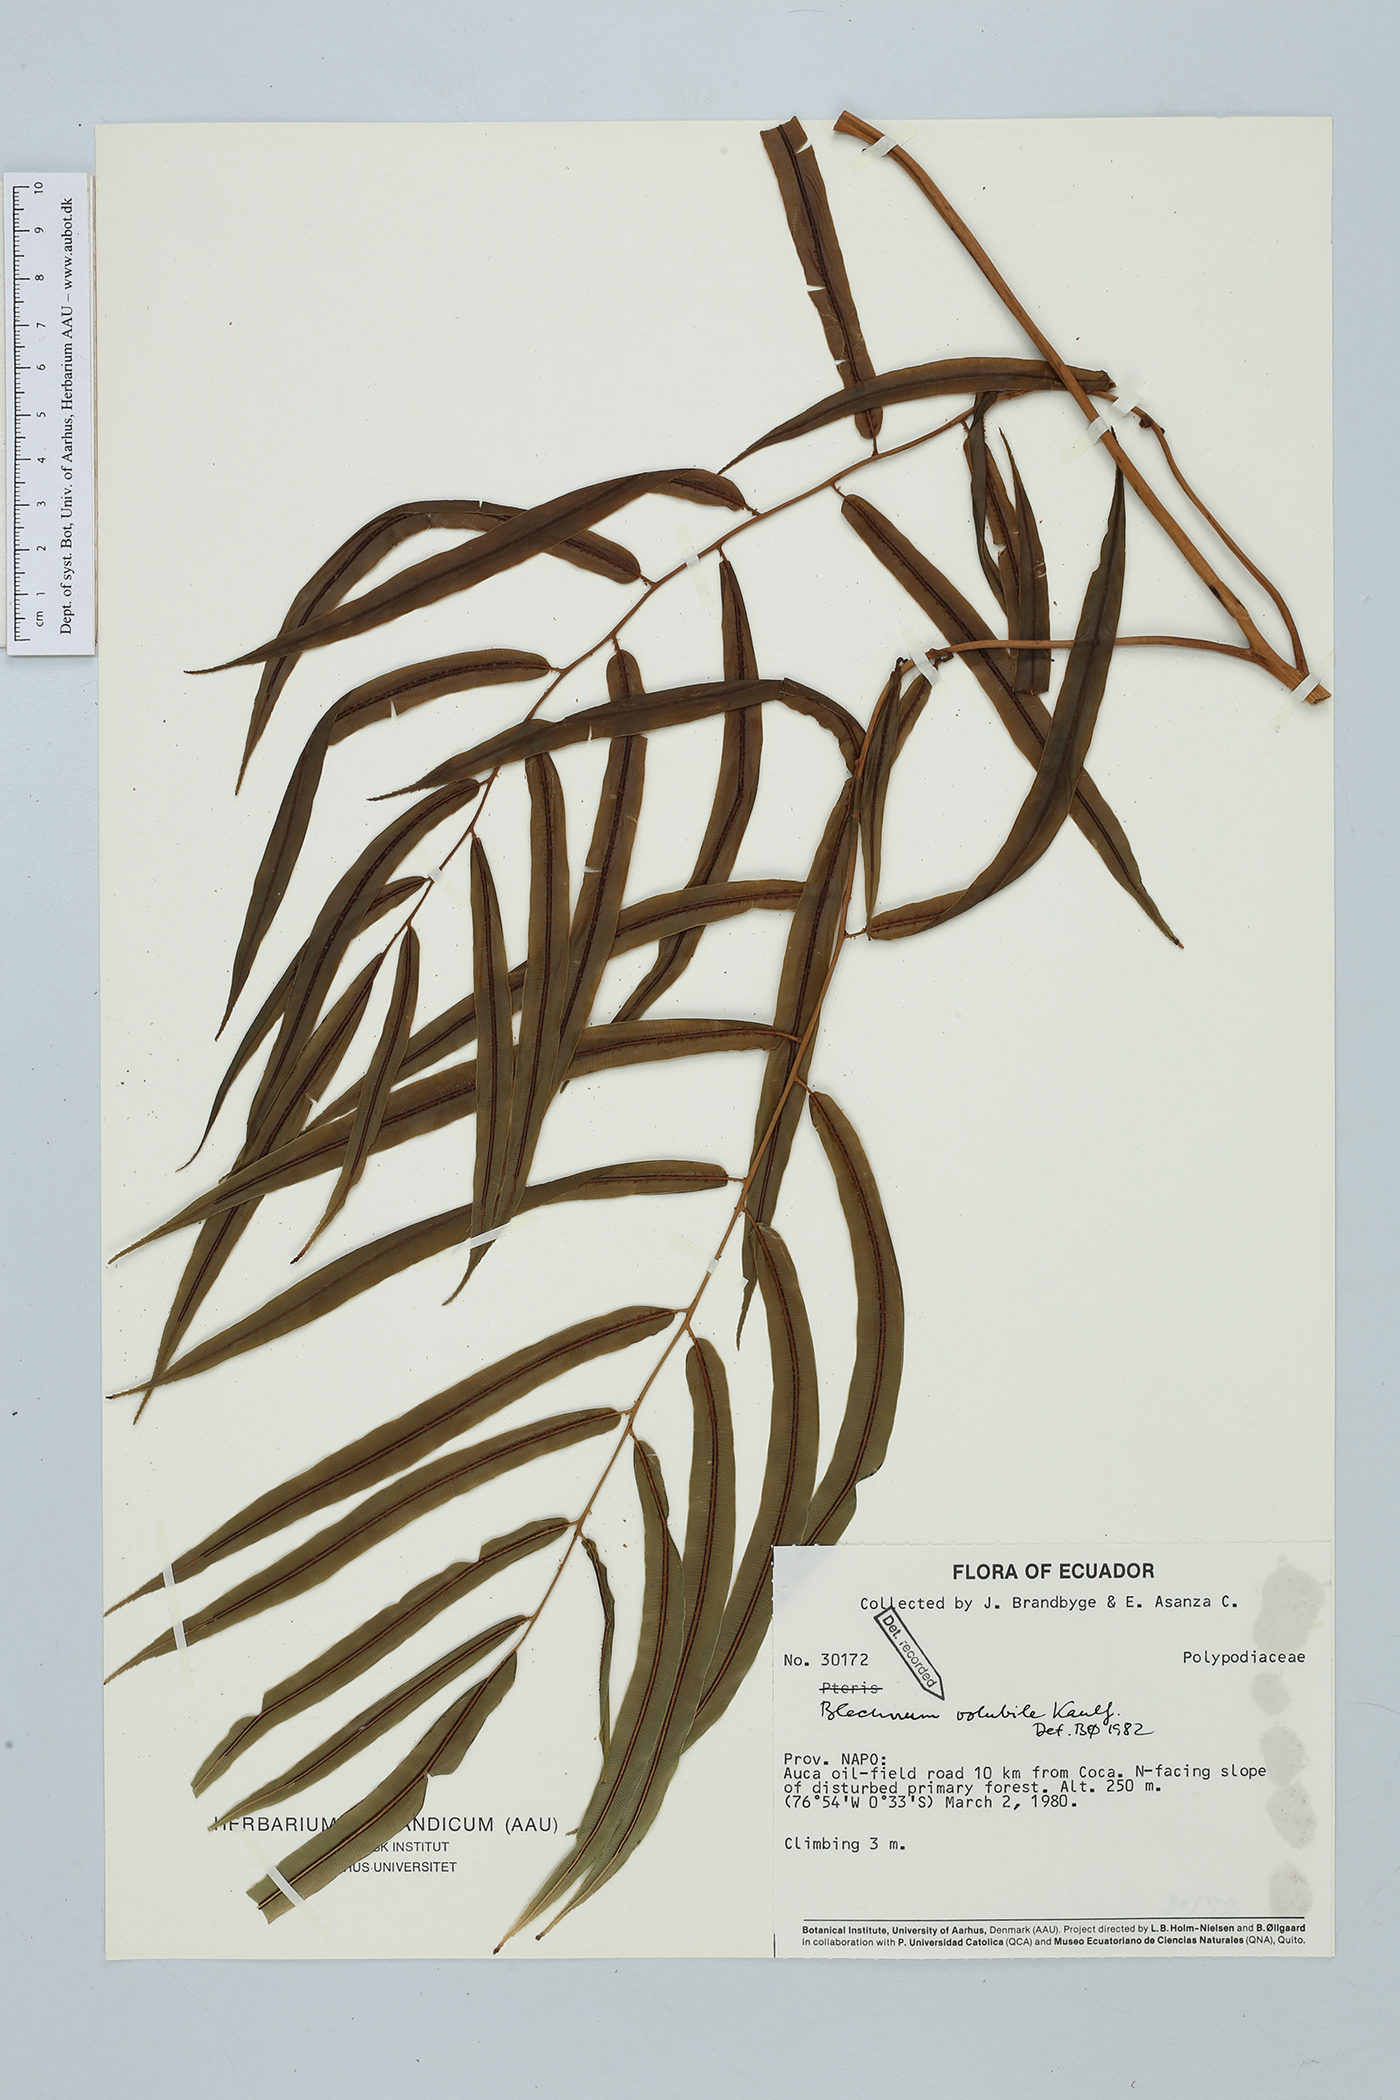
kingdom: Plantae
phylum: Tracheophyta
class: Polypodiopsida
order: Polypodiales
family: Blechnaceae
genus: Salpichlaena
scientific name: Salpichlaena volubilis
